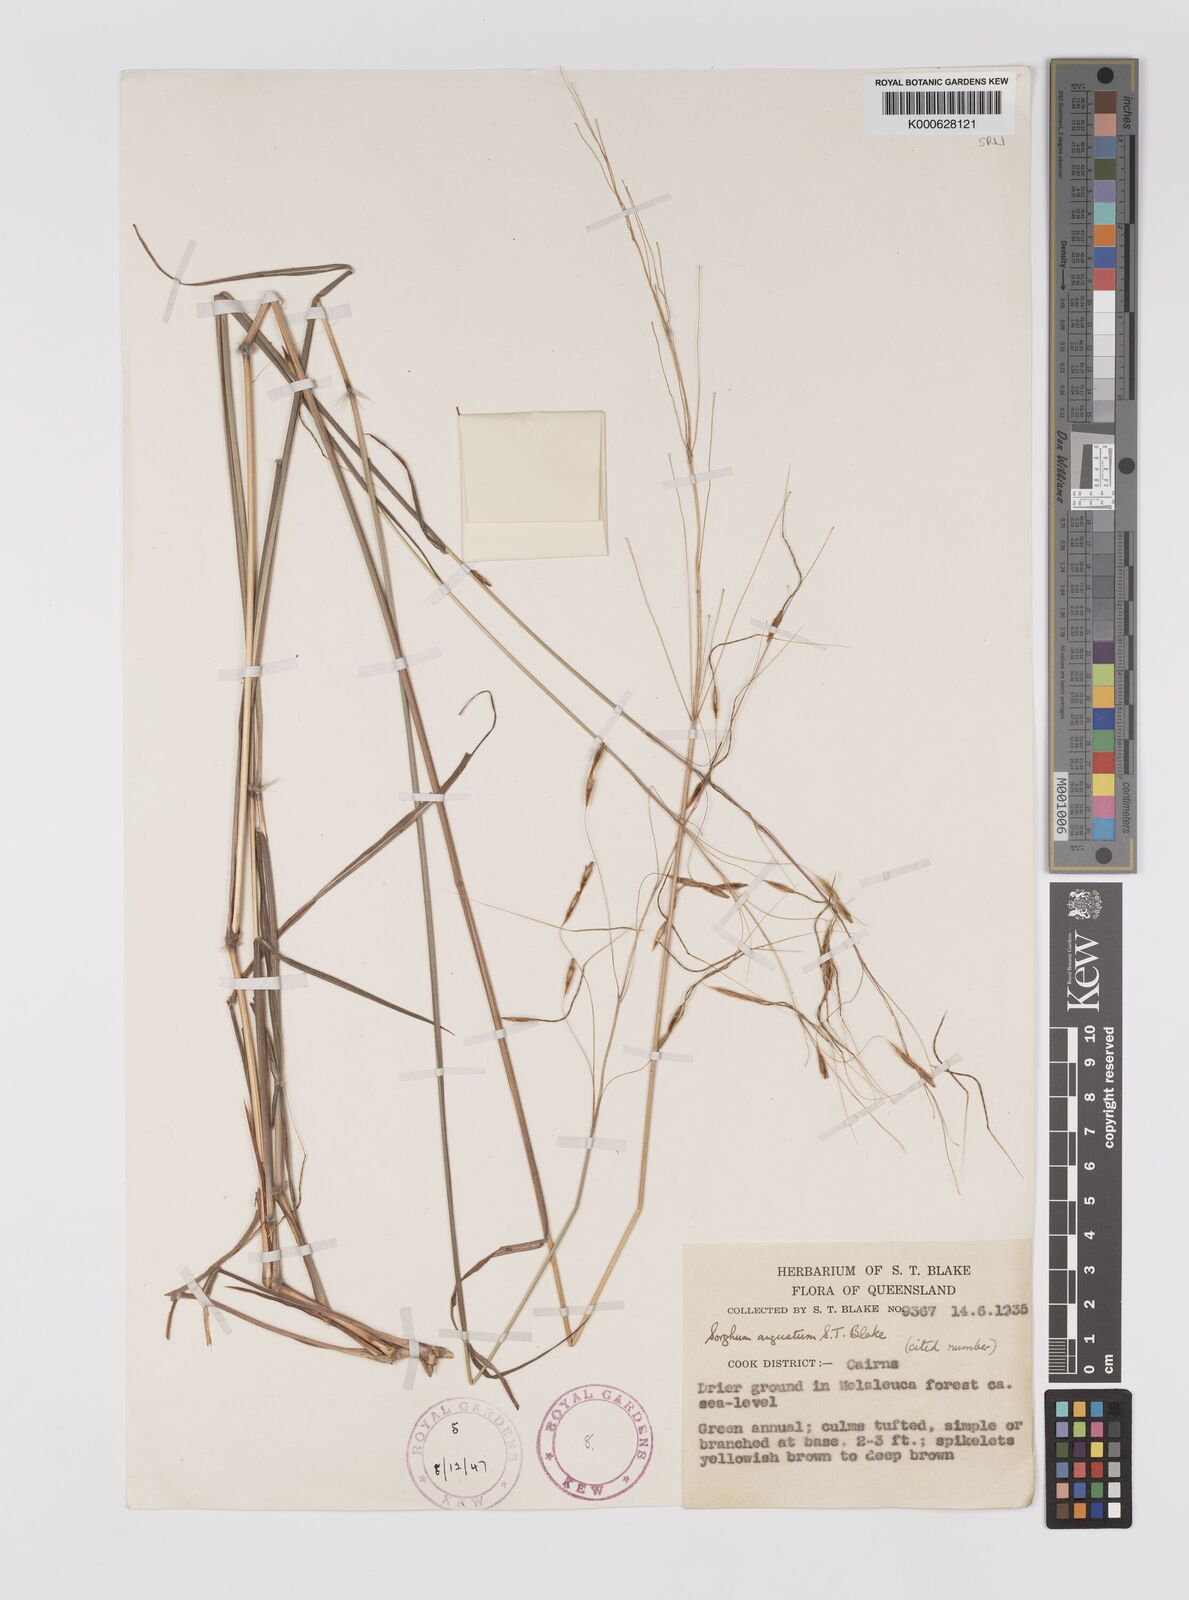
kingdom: Plantae
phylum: Tracheophyta
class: Liliopsida
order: Poales
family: Poaceae
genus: Sarga
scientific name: Sarga angusta
